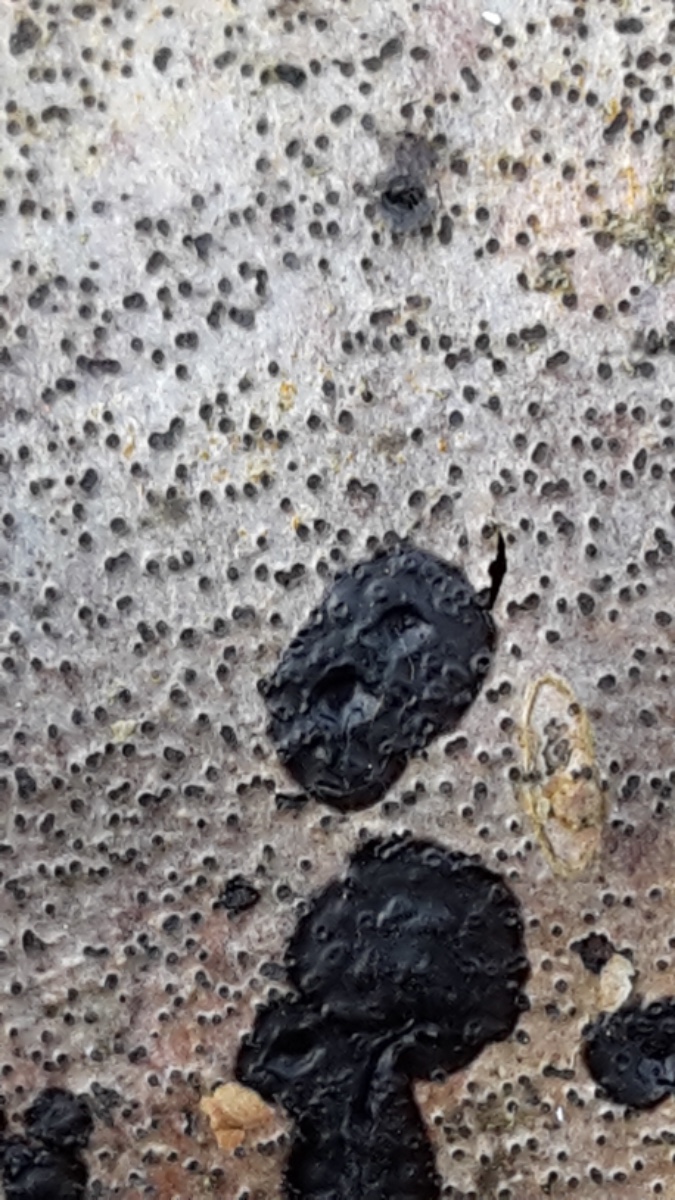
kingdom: Fungi
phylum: Basidiomycota
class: Agaricomycetes
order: Auriculariales
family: Auriculariaceae
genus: Exidia
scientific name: Exidia pithya
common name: gran-bævretop
